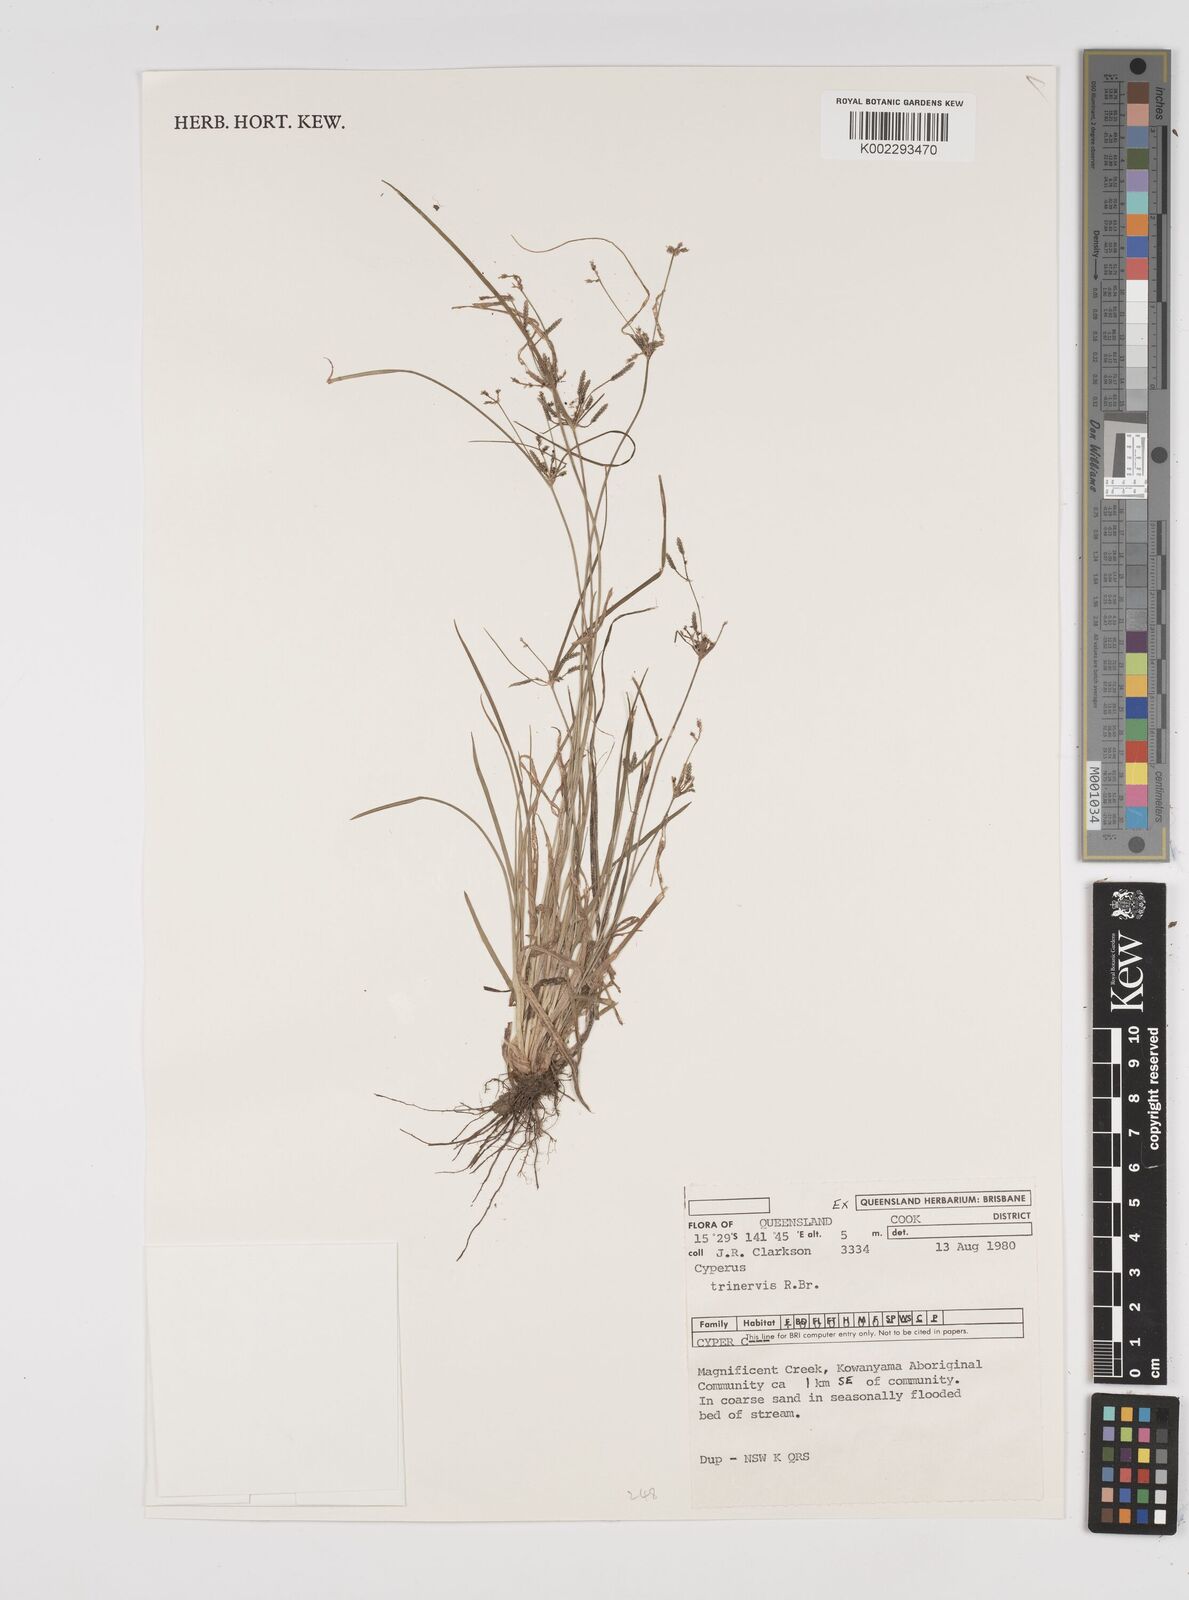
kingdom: Plantae
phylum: Tracheophyta
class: Liliopsida
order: Poales
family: Cyperaceae
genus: Cyperus
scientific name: Cyperus trinervis
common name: Australian flatsedge
